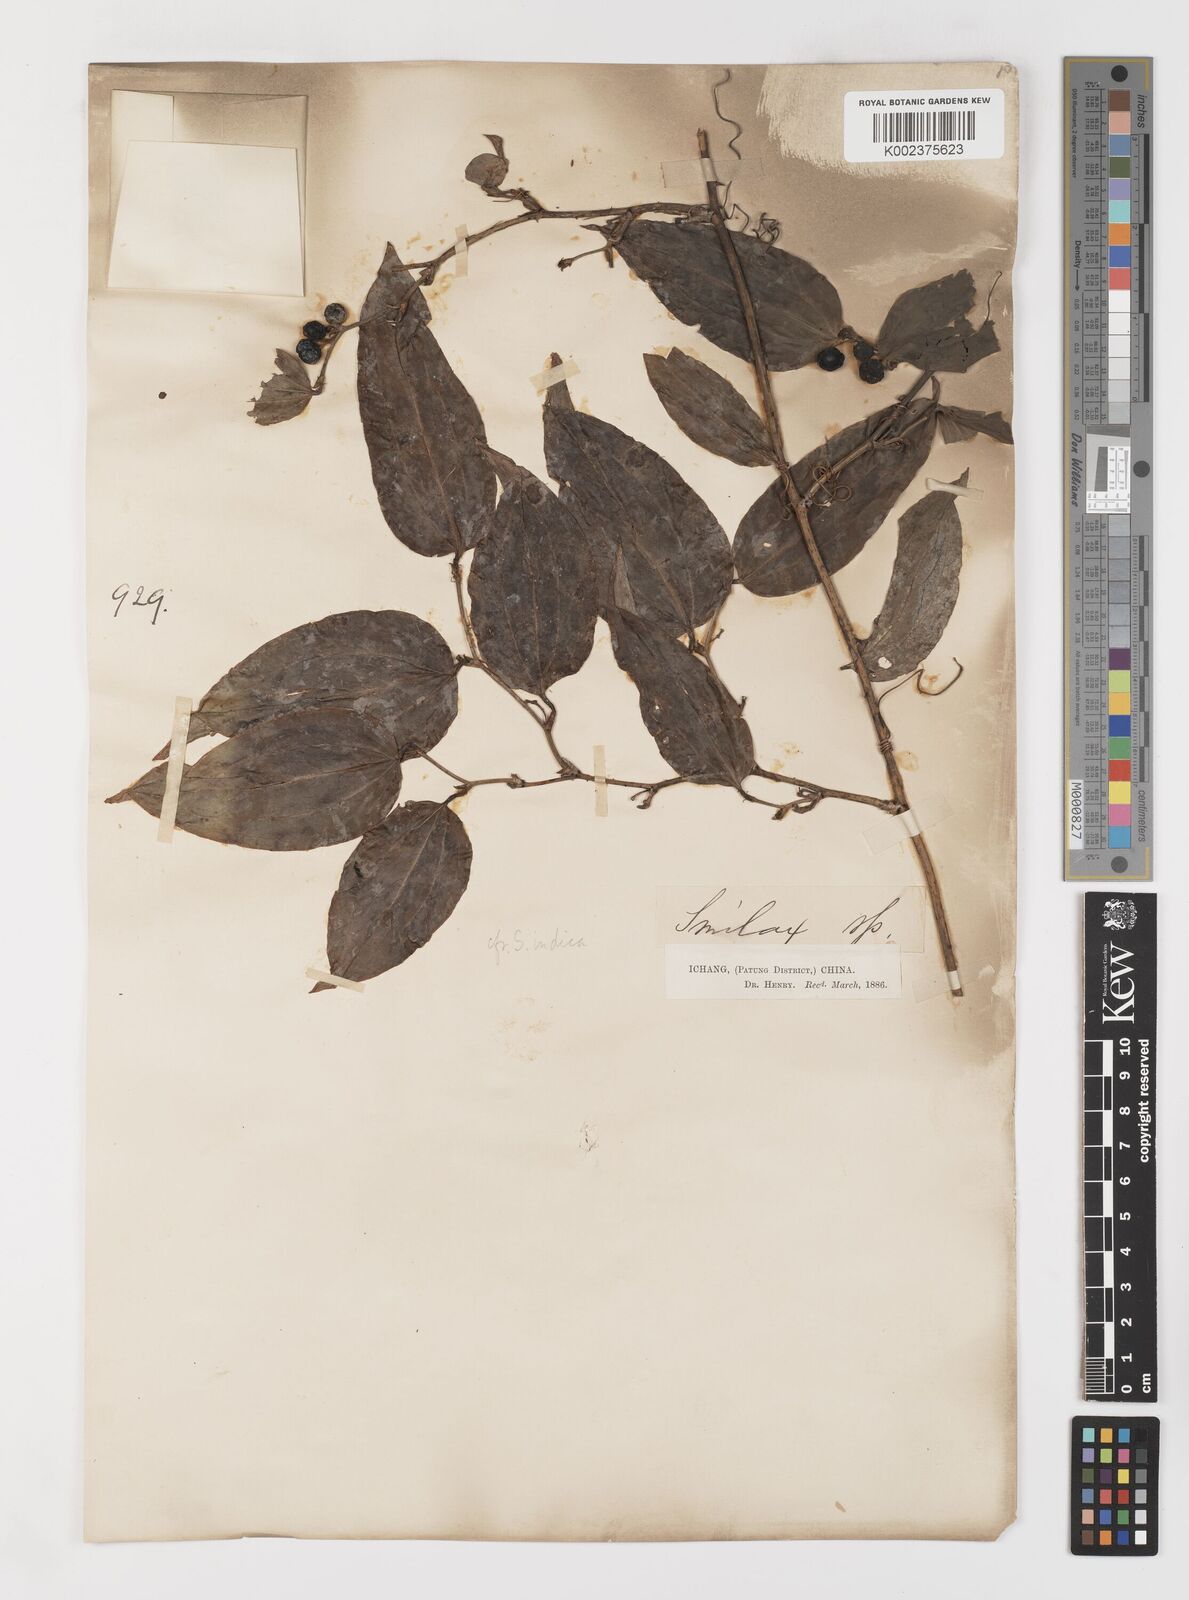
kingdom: Plantae
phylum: Tracheophyta
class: Liliopsida
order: Liliales
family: Smilacaceae
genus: Smilax
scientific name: Smilax scobinicaulis
